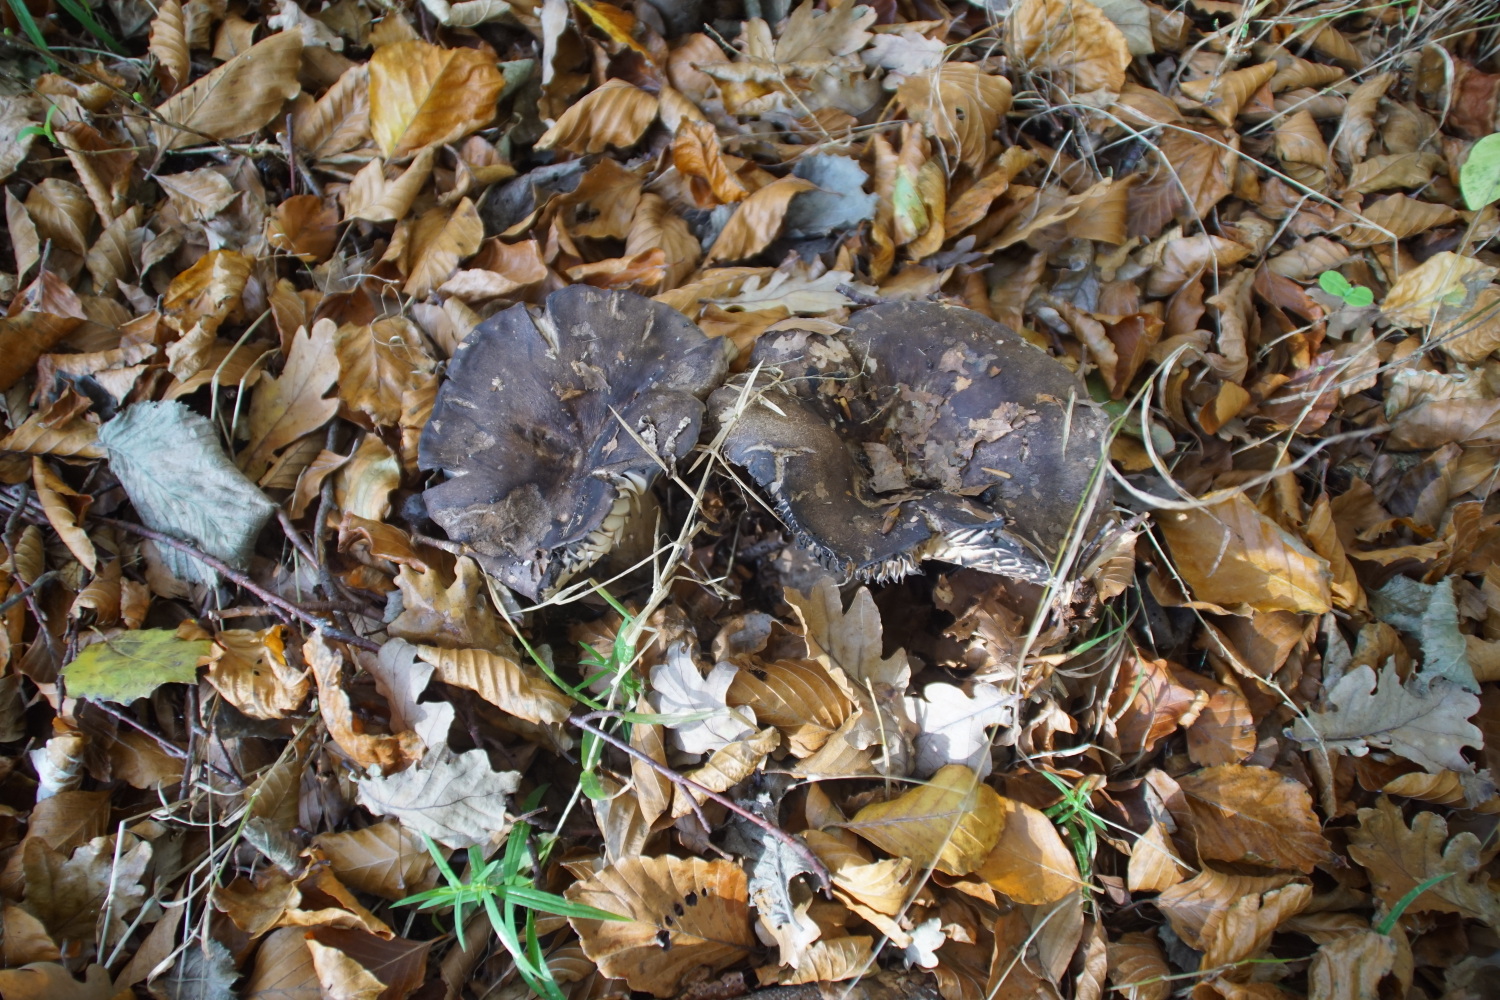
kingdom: Fungi
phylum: Basidiomycota
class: Agaricomycetes
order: Russulales
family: Russulaceae
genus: Russula
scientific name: Russula adusta
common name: sværtende skørhat
